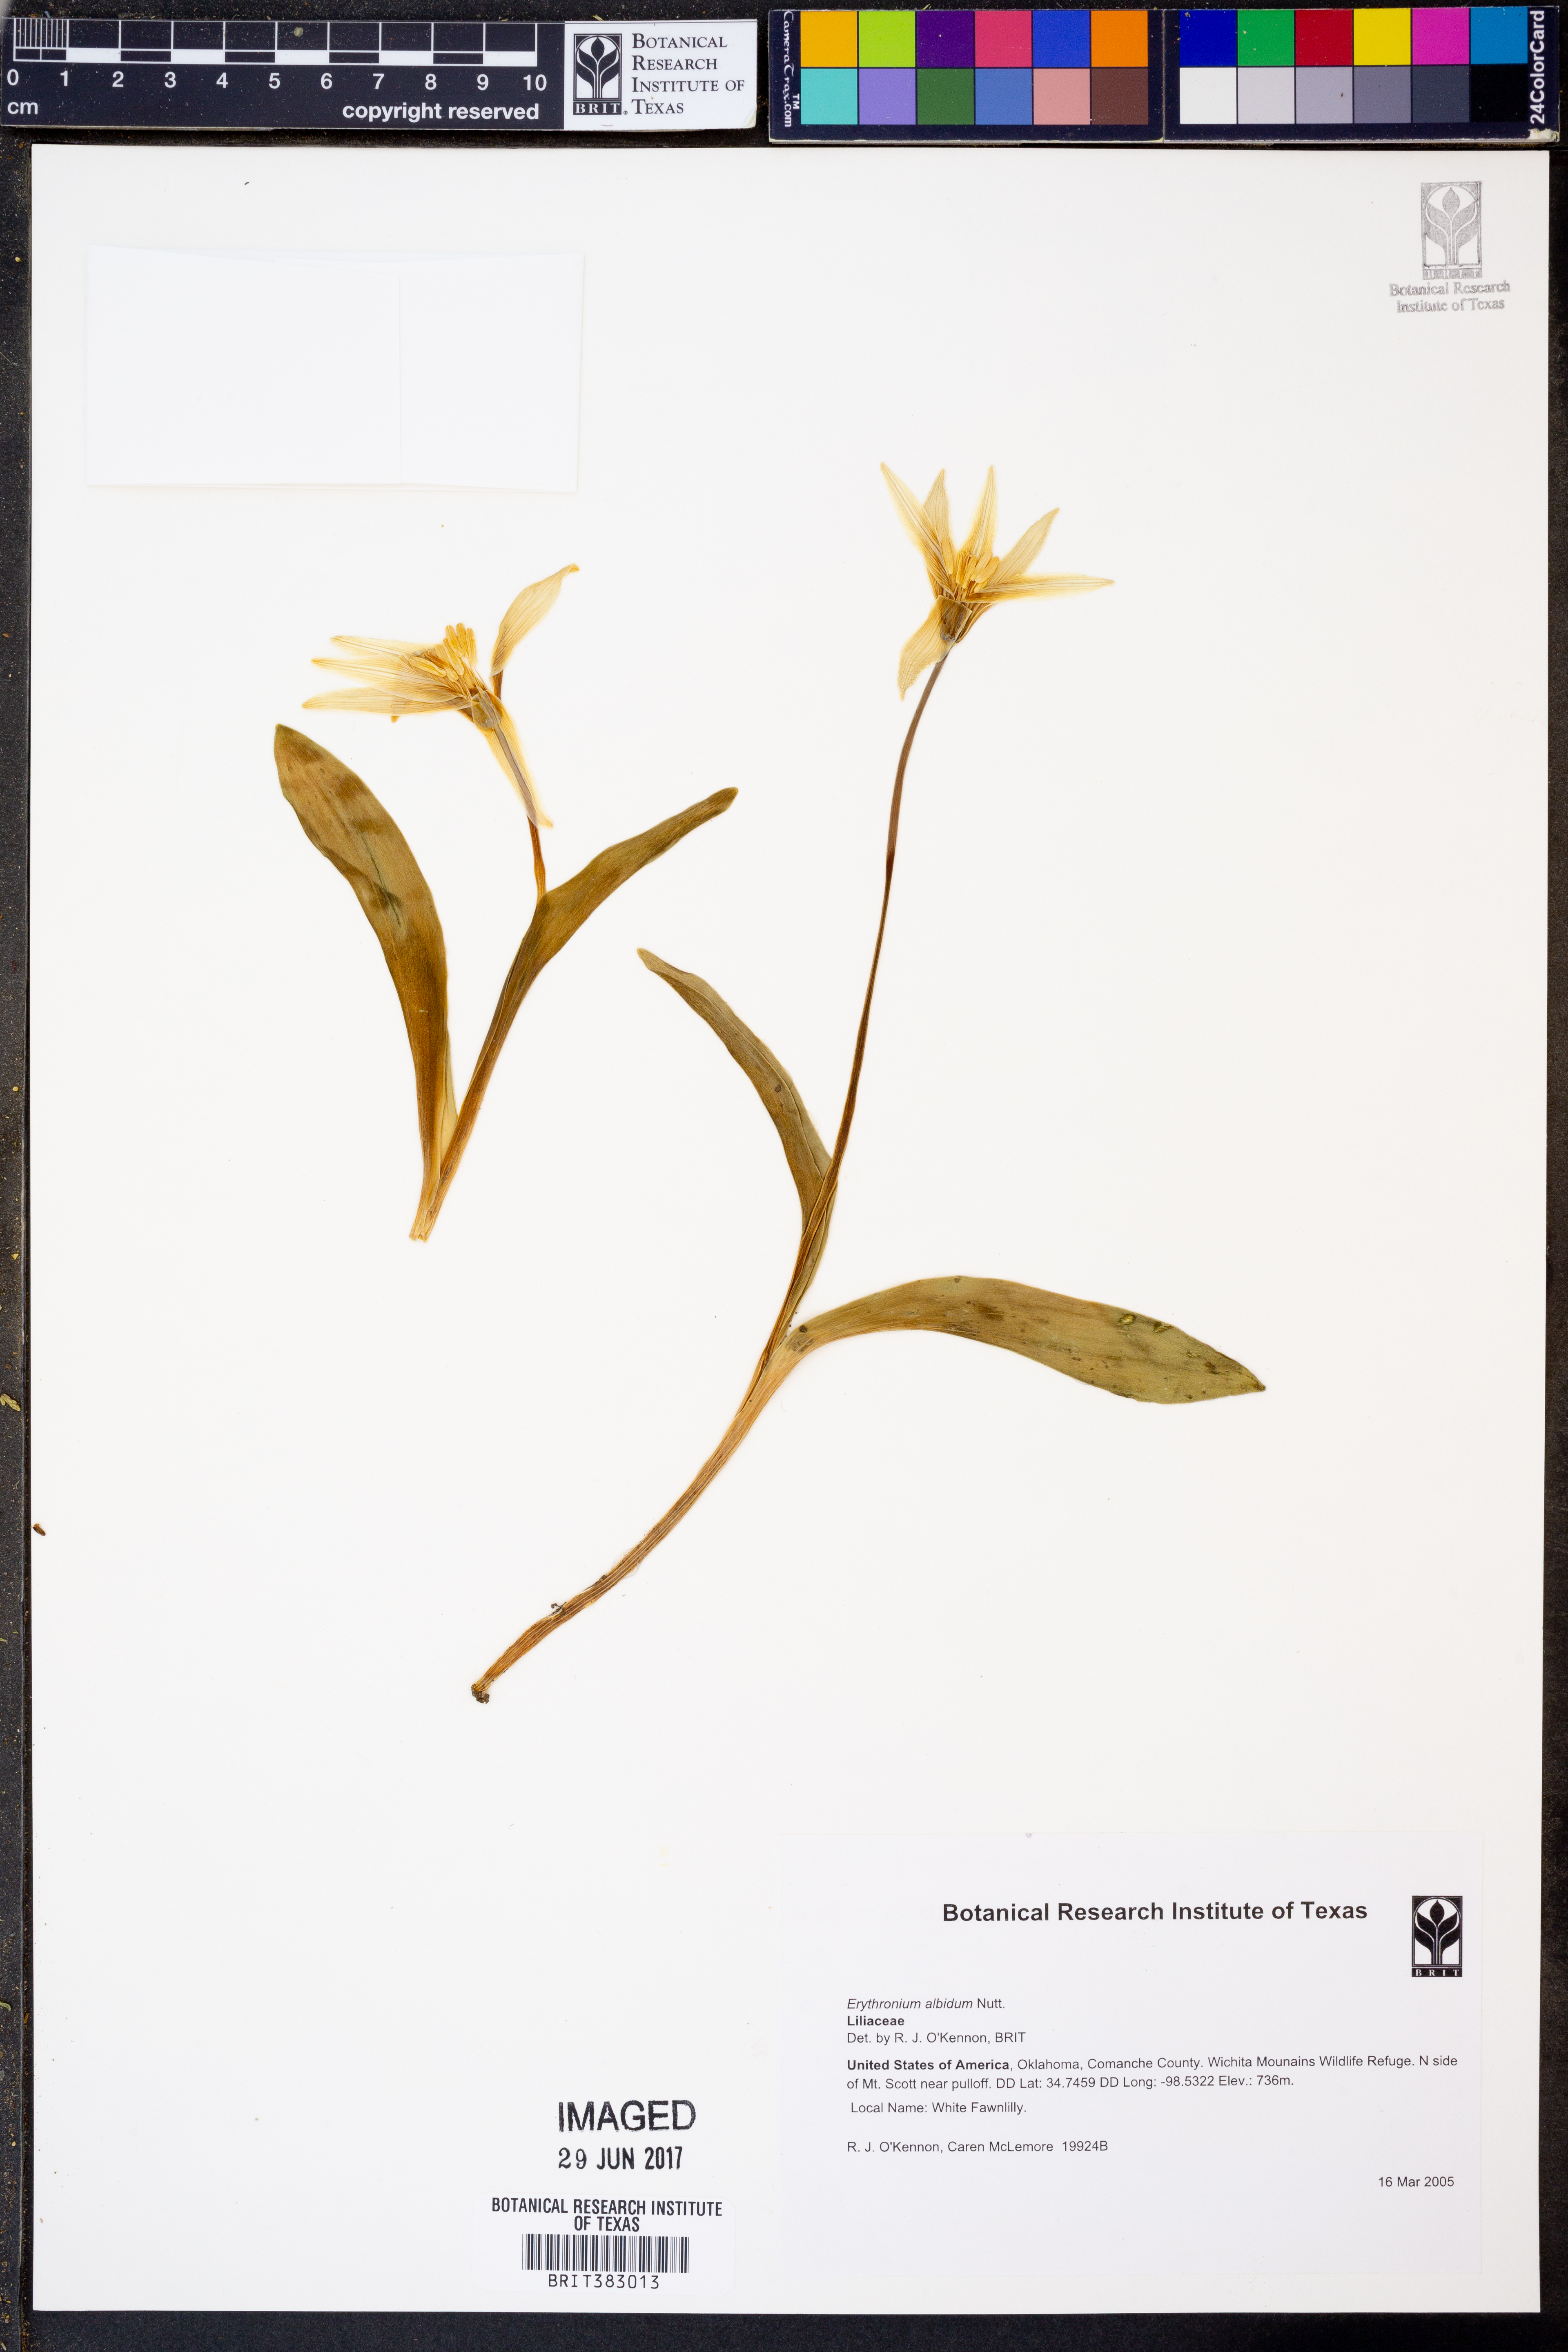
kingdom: Plantae
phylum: Tracheophyta
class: Liliopsida
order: Liliales
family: Liliaceae
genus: Erythronium
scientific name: Erythronium albidum
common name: White trout-lily
